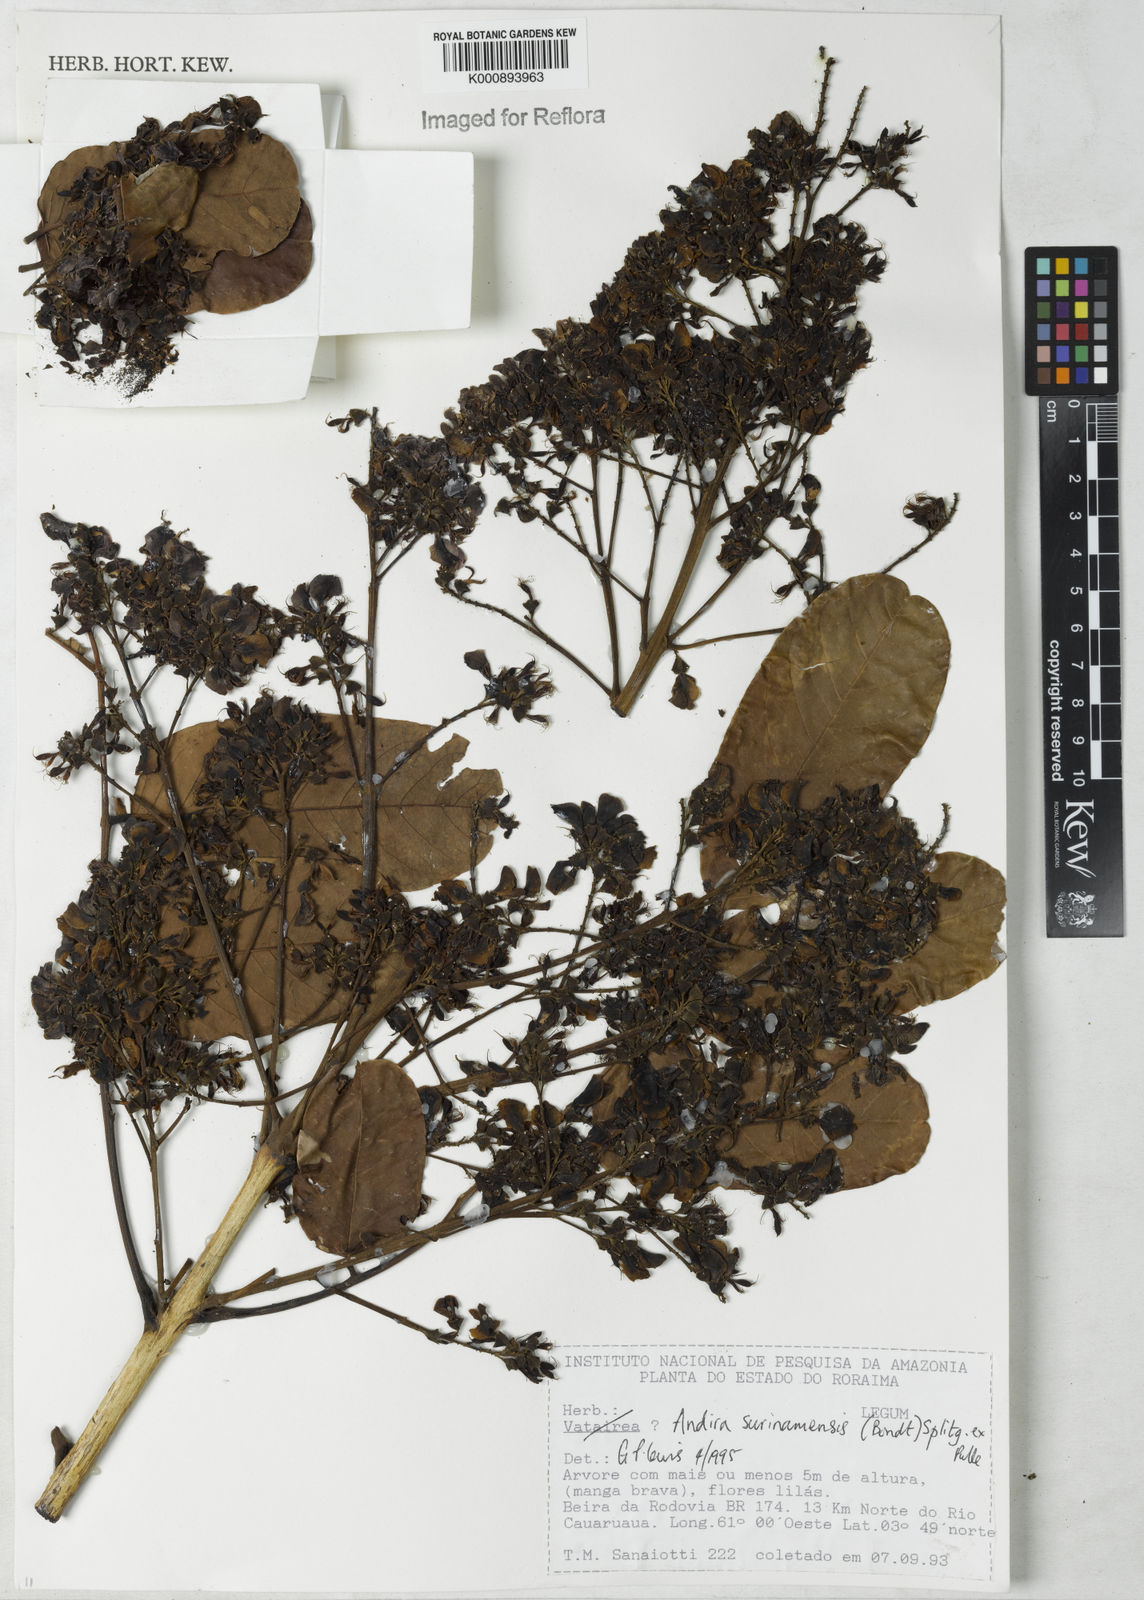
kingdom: Plantae
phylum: Tracheophyta
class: Magnoliopsida
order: Fabales
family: Fabaceae
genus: Andira
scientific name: Andira
